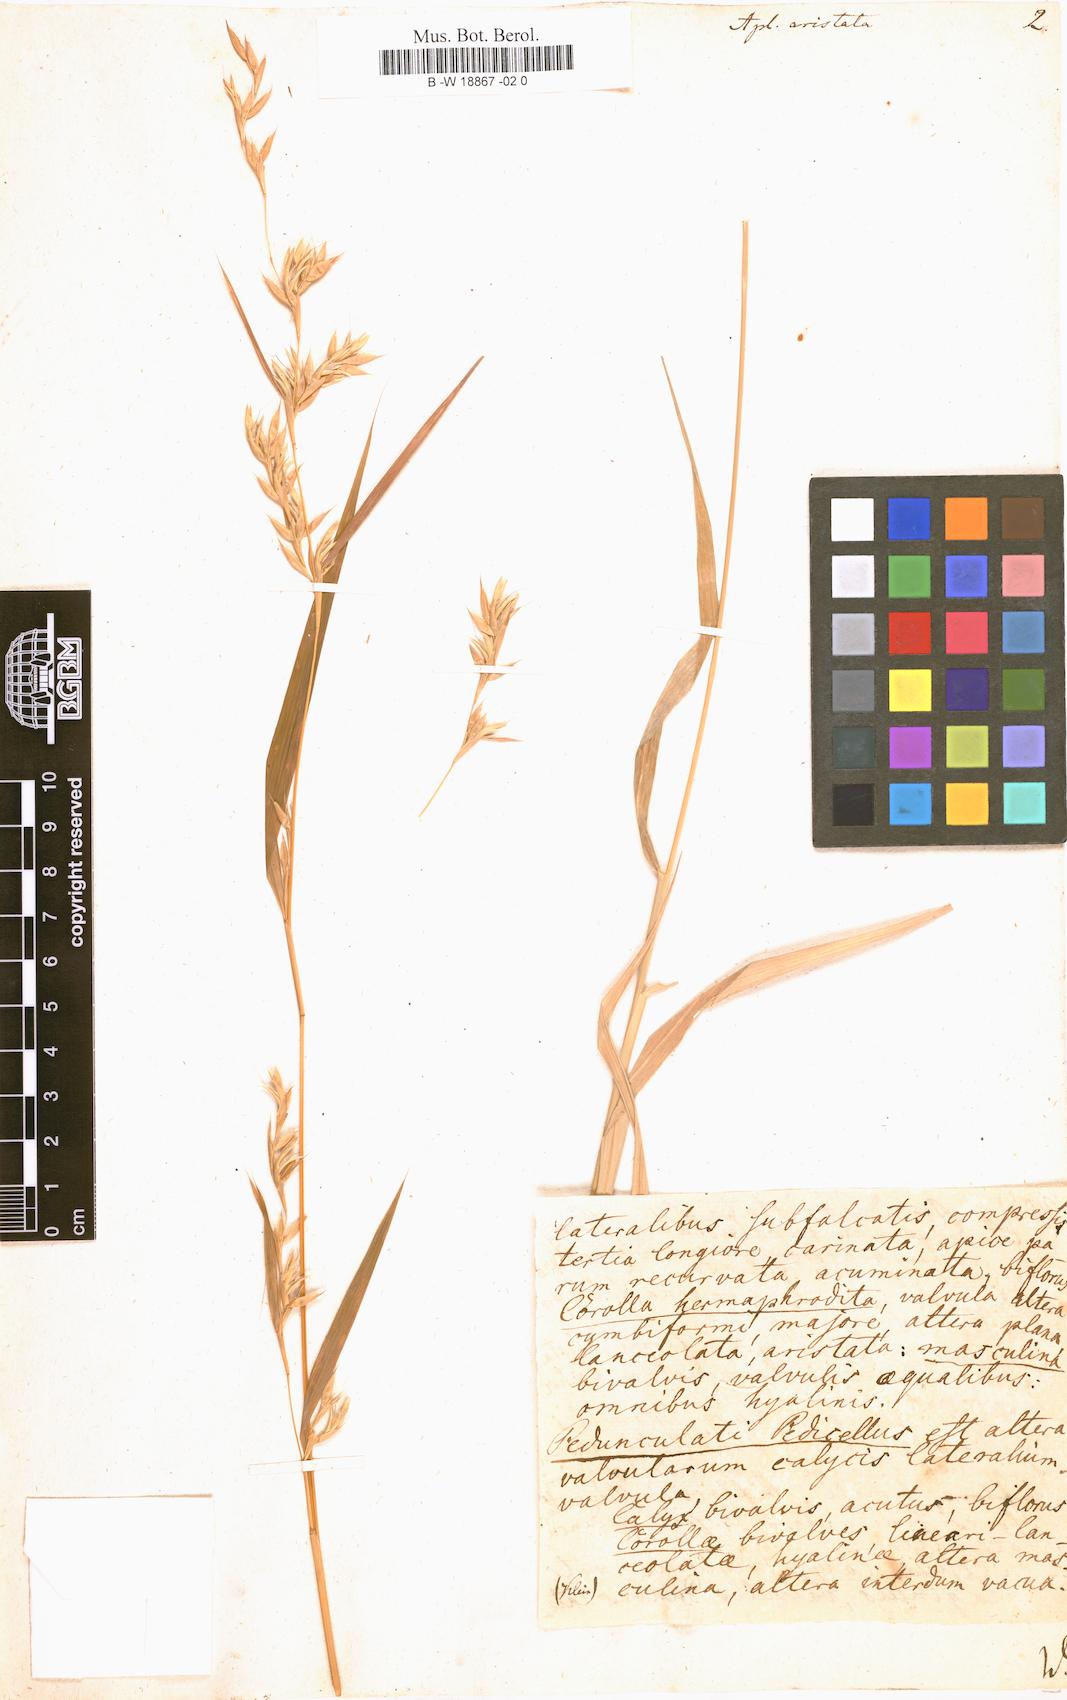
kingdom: Plantae
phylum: Tracheophyta
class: Liliopsida
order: Poales
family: Poaceae
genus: Apluda
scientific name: Apluda mutica
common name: Mauritian grass
